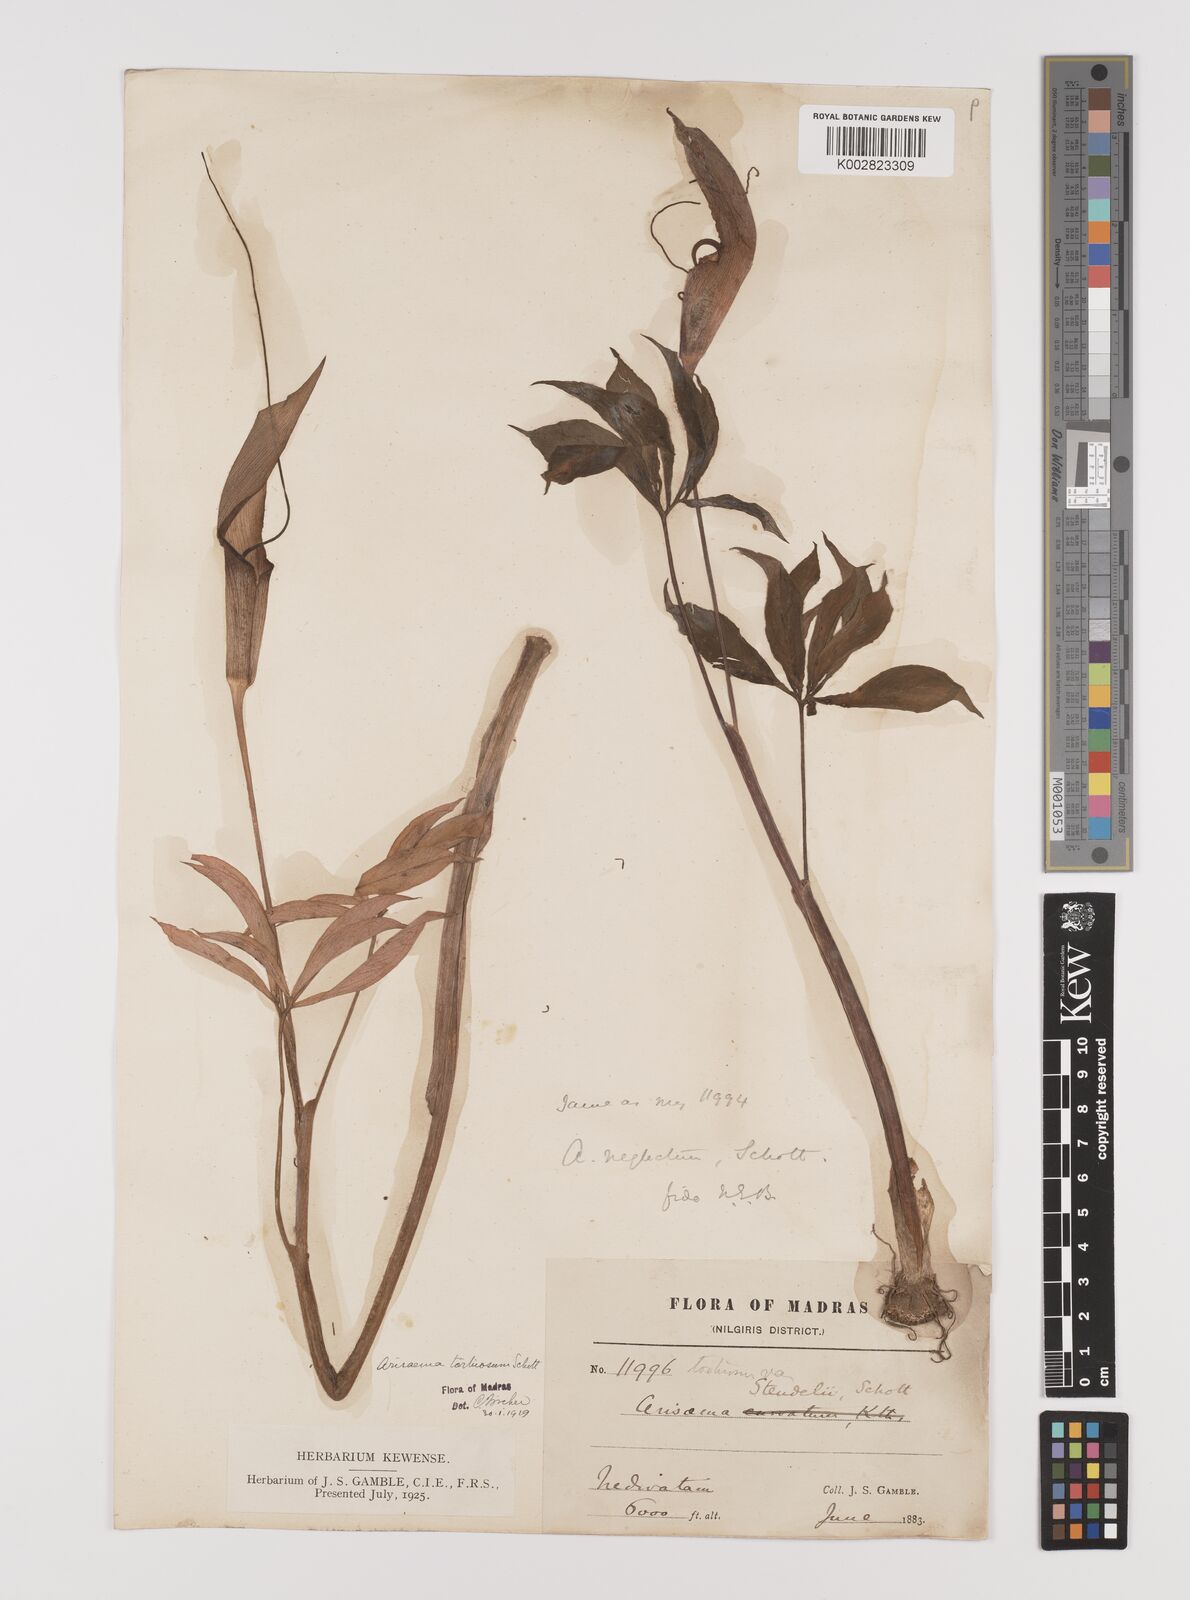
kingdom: Plantae
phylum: Tracheophyta
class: Liliopsida
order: Alismatales
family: Araceae
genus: Arisaema
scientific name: Arisaema tortuosum
